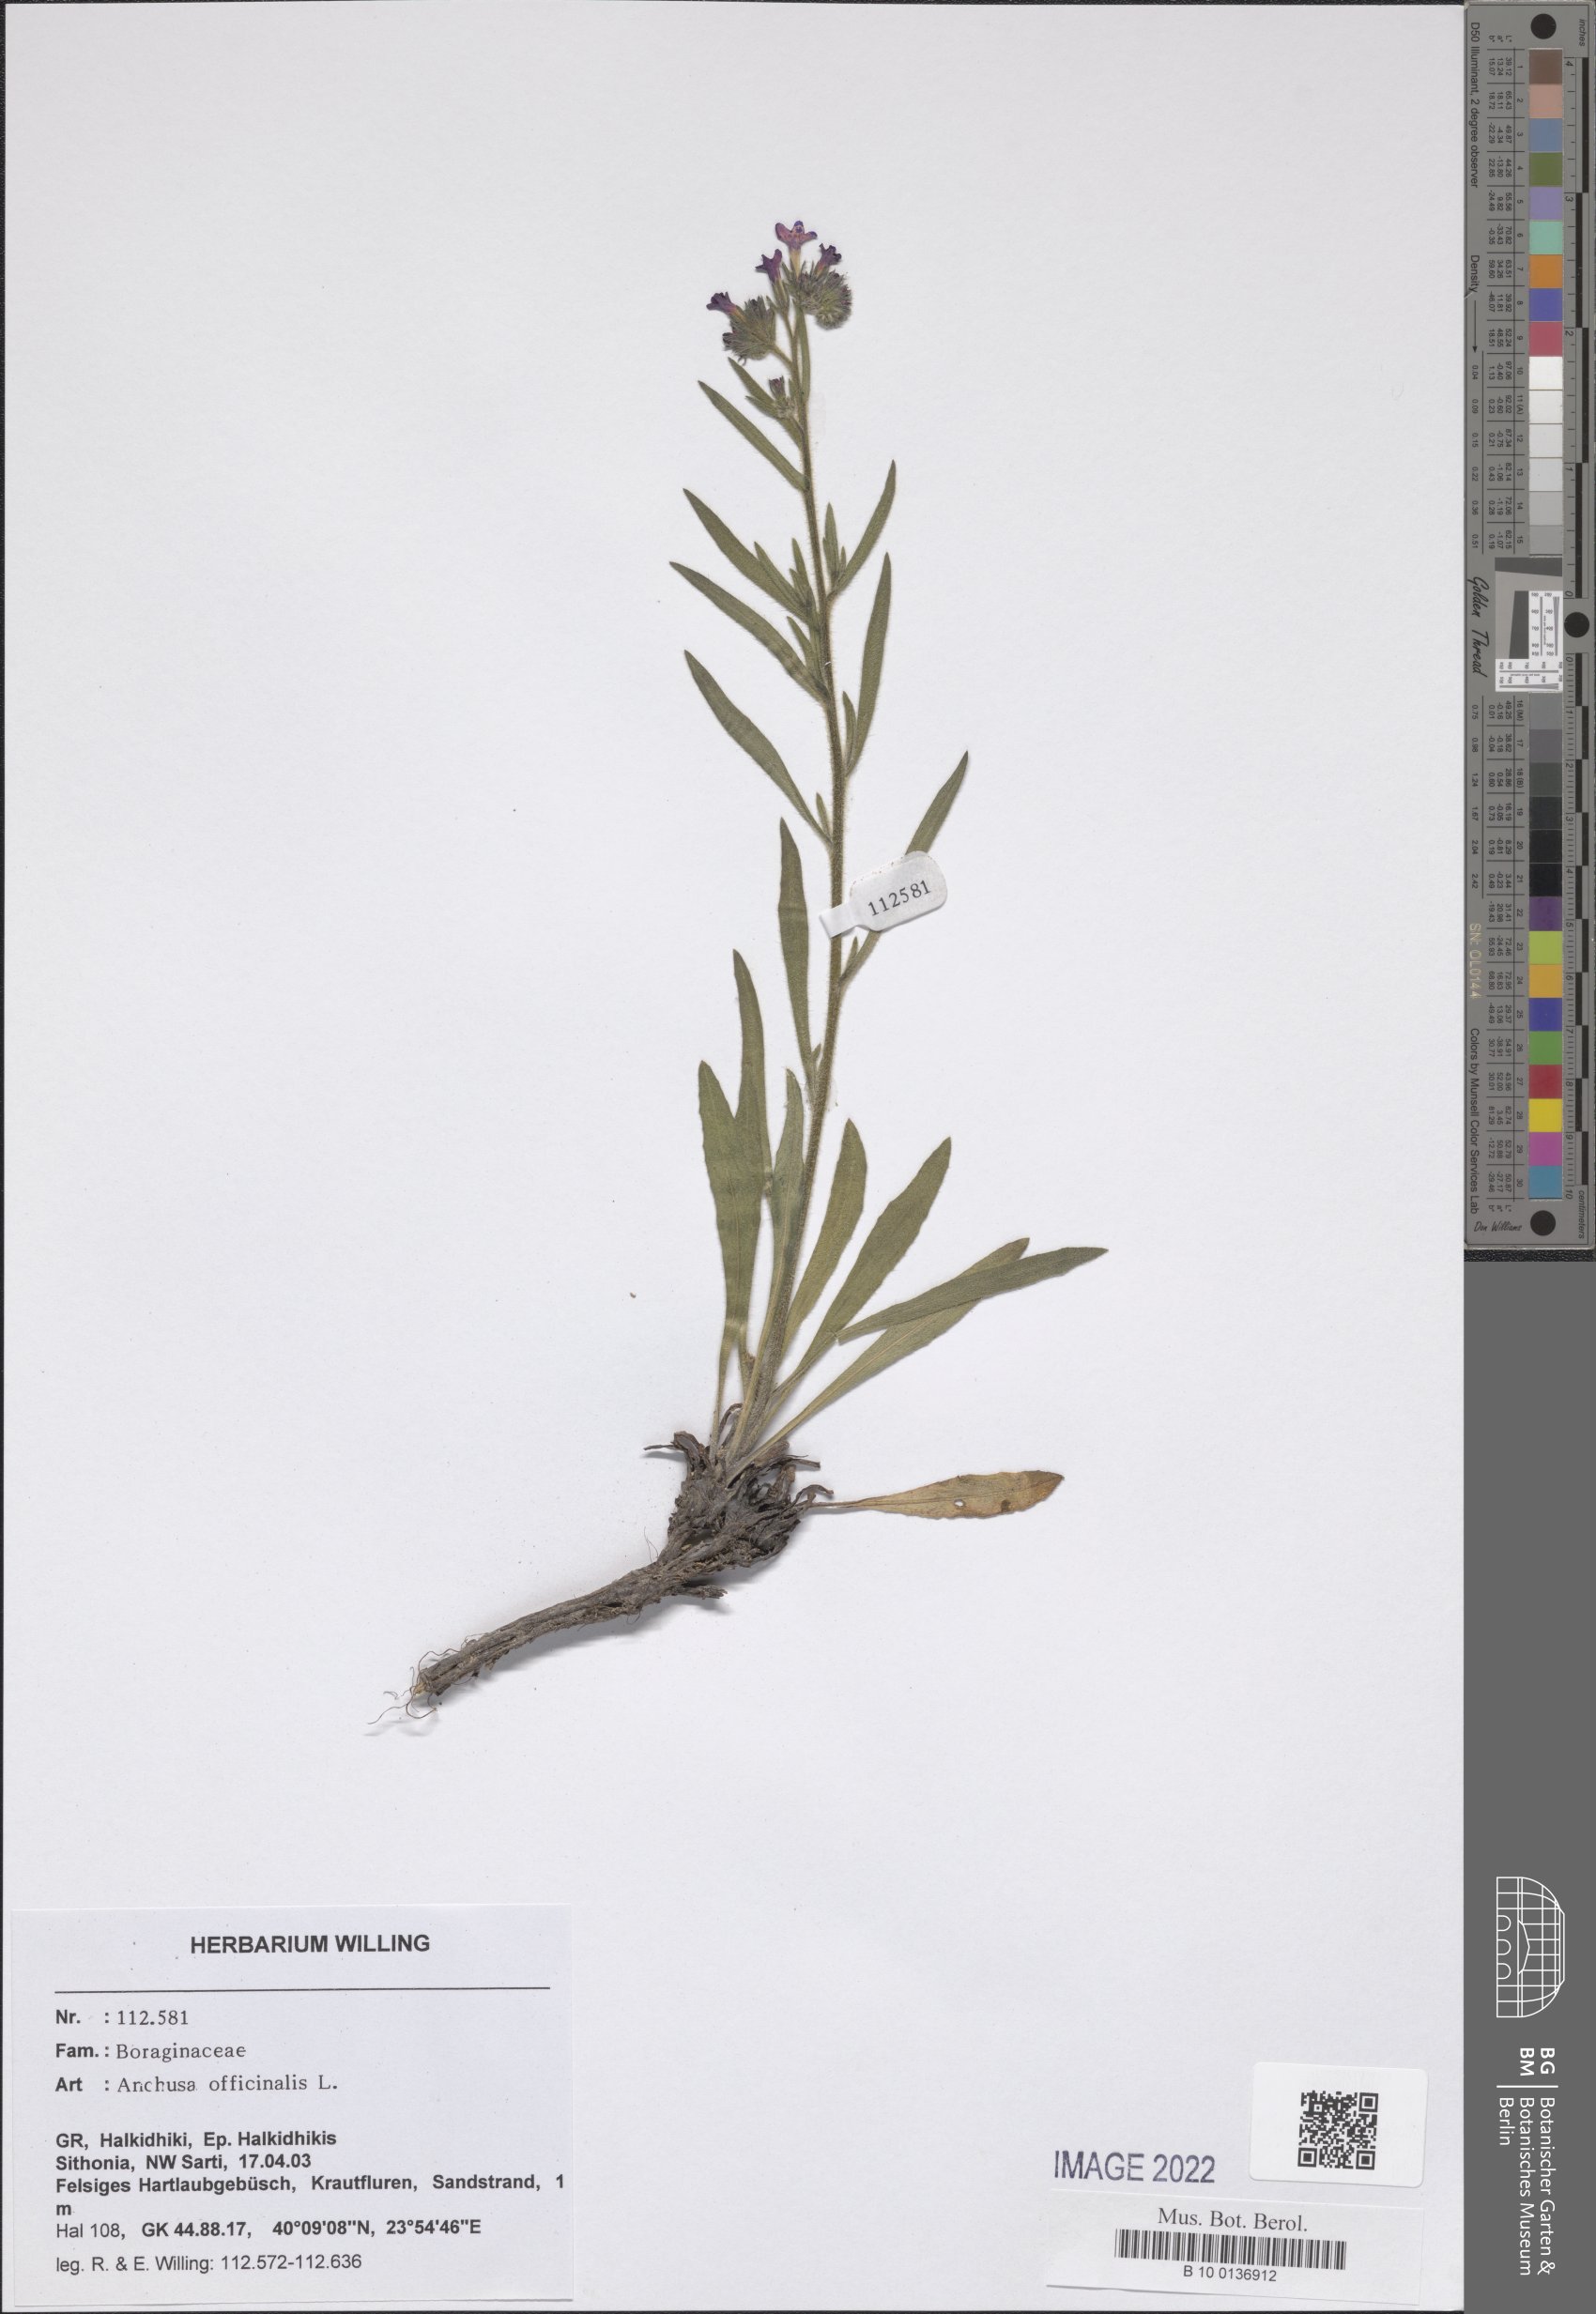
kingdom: Plantae
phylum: Tracheophyta
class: Magnoliopsida
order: Boraginales
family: Boraginaceae
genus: Anchusa
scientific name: Anchusa officinalis
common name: Alkanet
